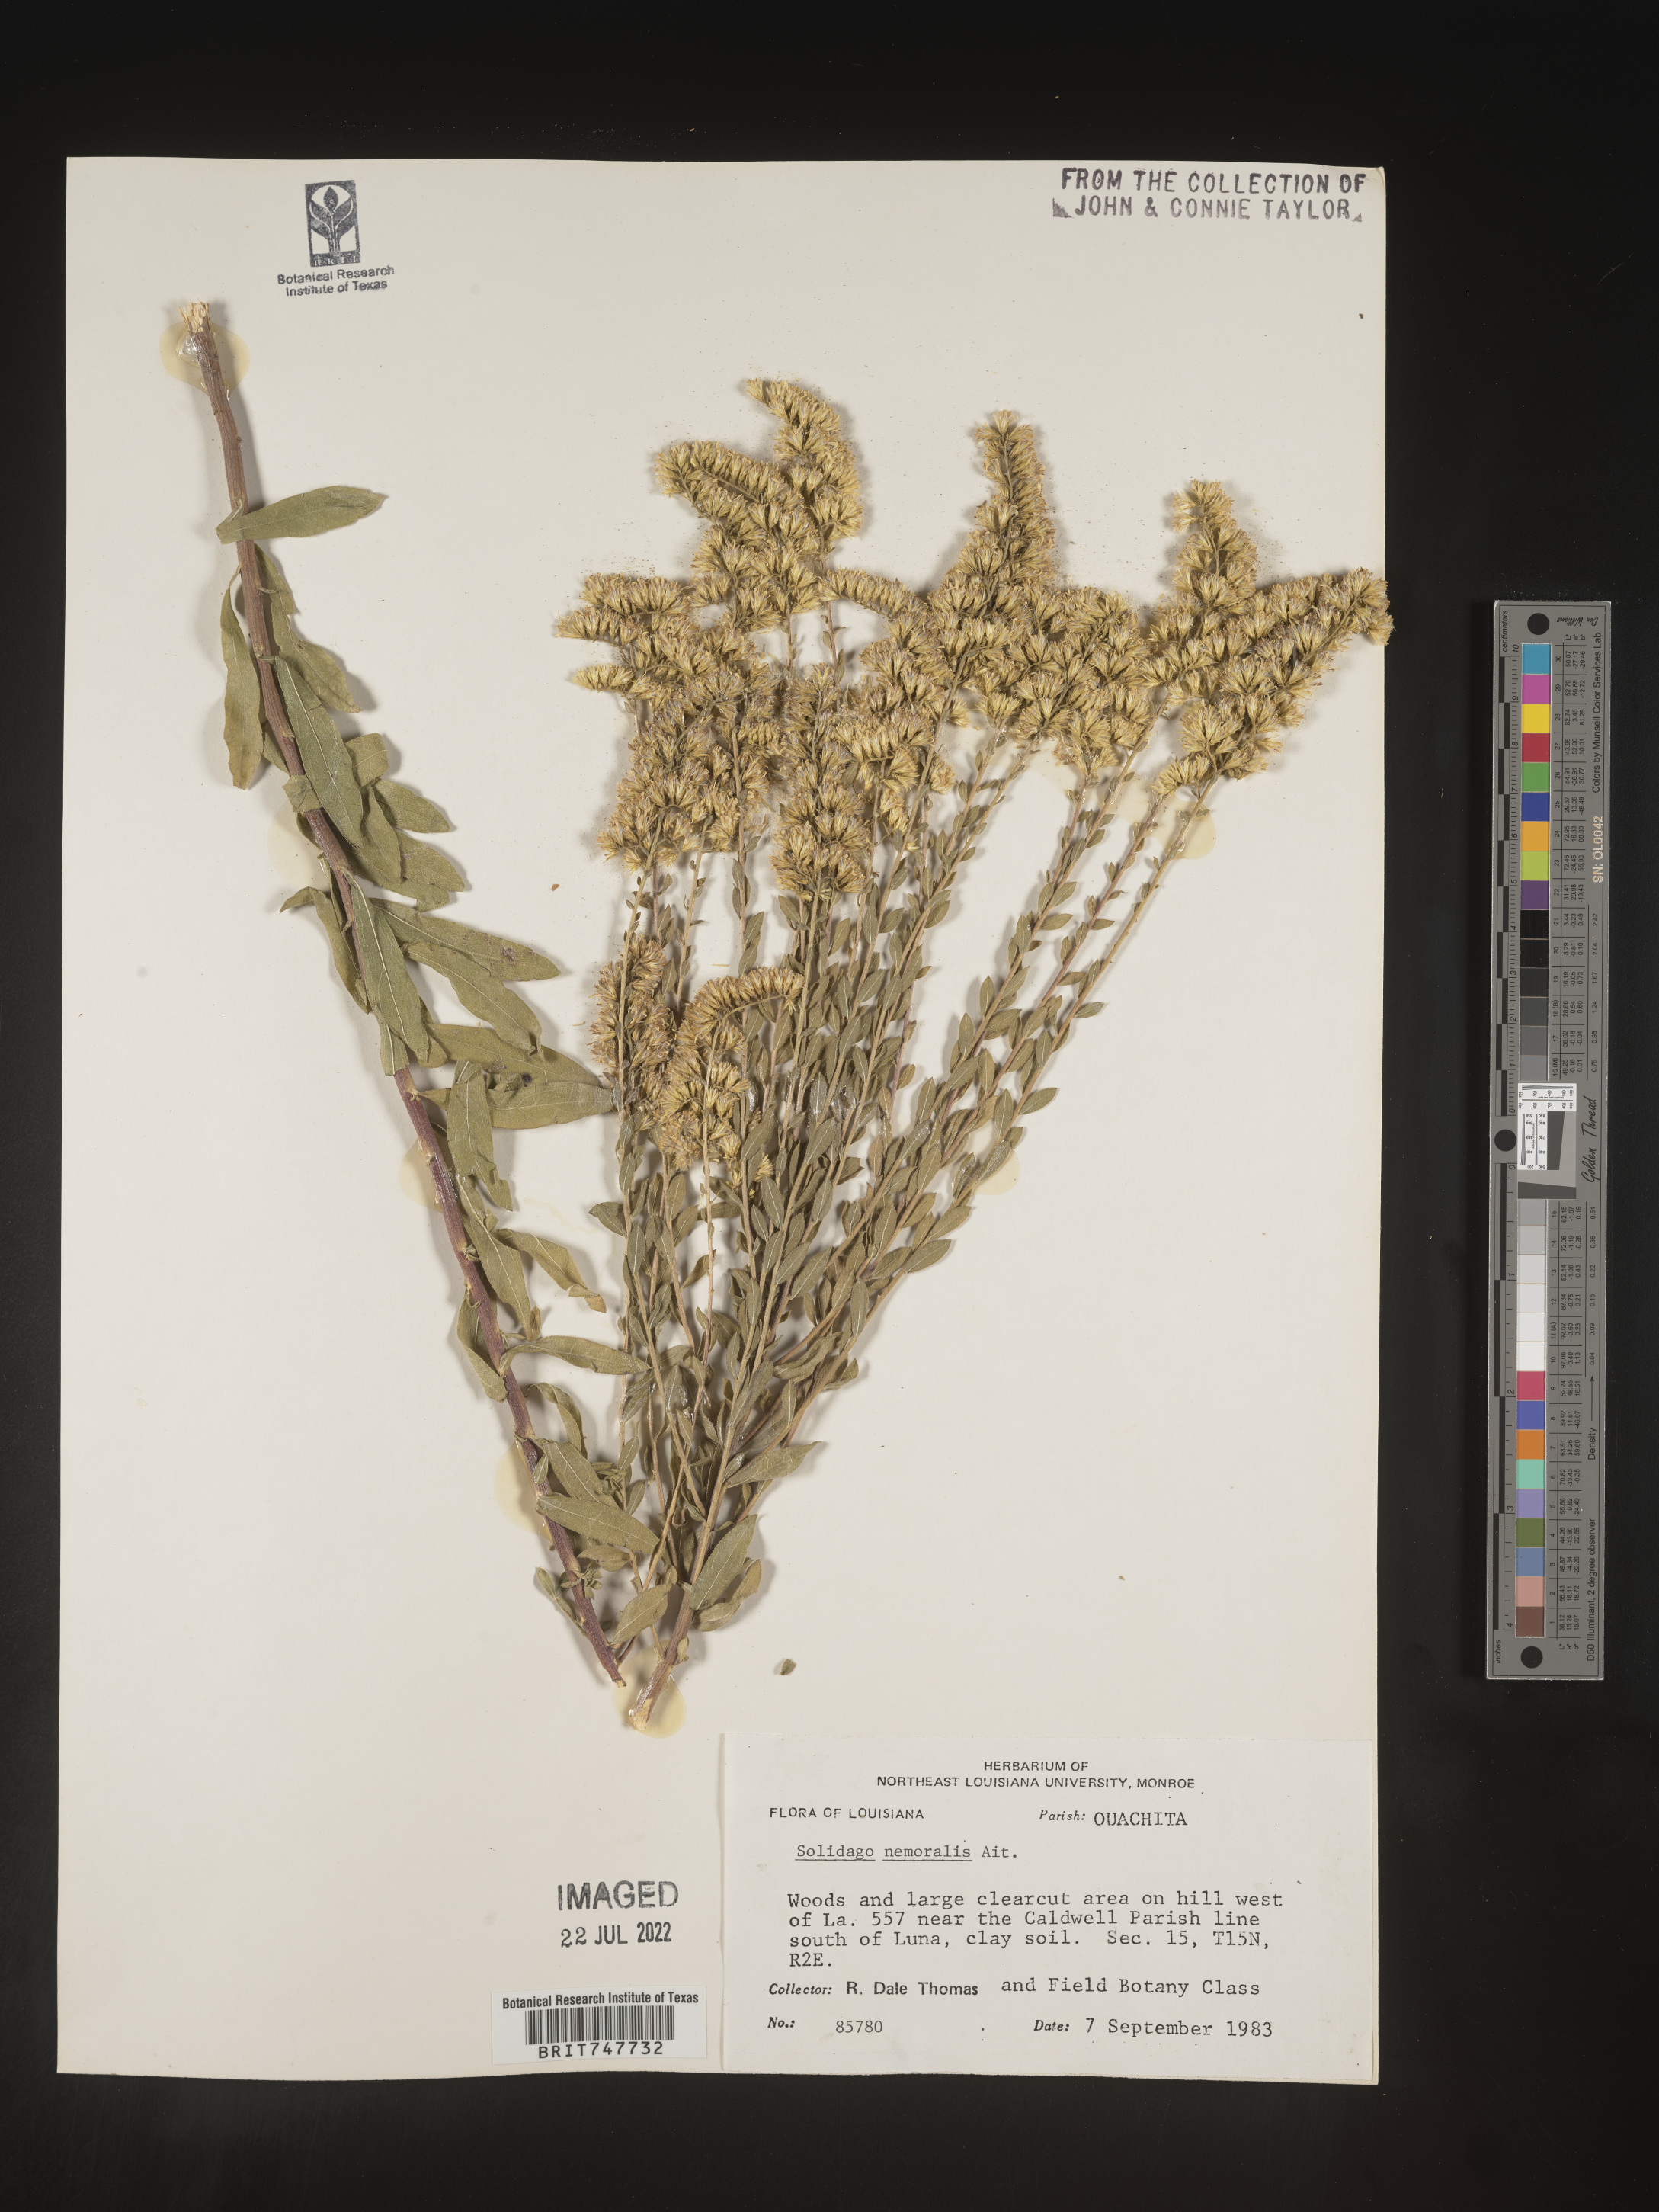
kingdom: Plantae
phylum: Tracheophyta
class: Magnoliopsida
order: Asterales
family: Asteraceae
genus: Solidago
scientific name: Solidago nemoralis
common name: Grey goldenrod
